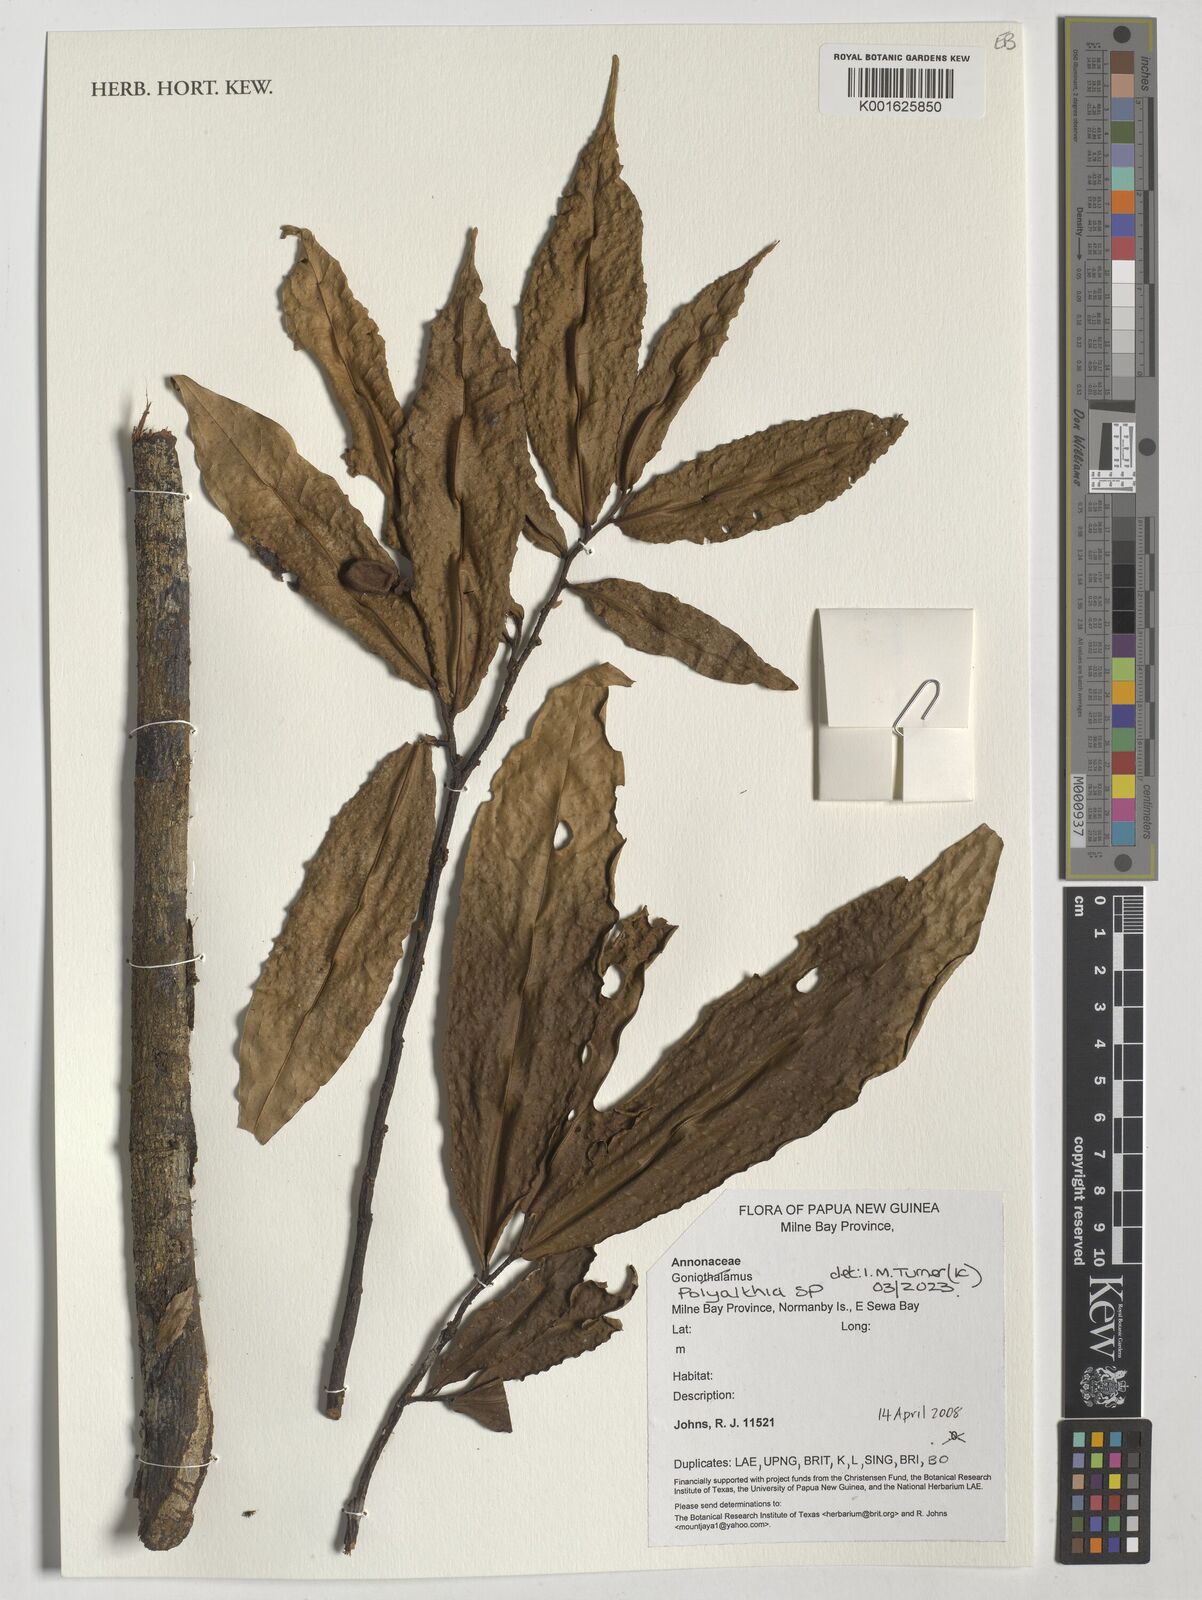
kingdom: Plantae
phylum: Tracheophyta
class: Magnoliopsida
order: Magnoliales
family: Annonaceae
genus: Polyalthia
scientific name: Polyalthia
